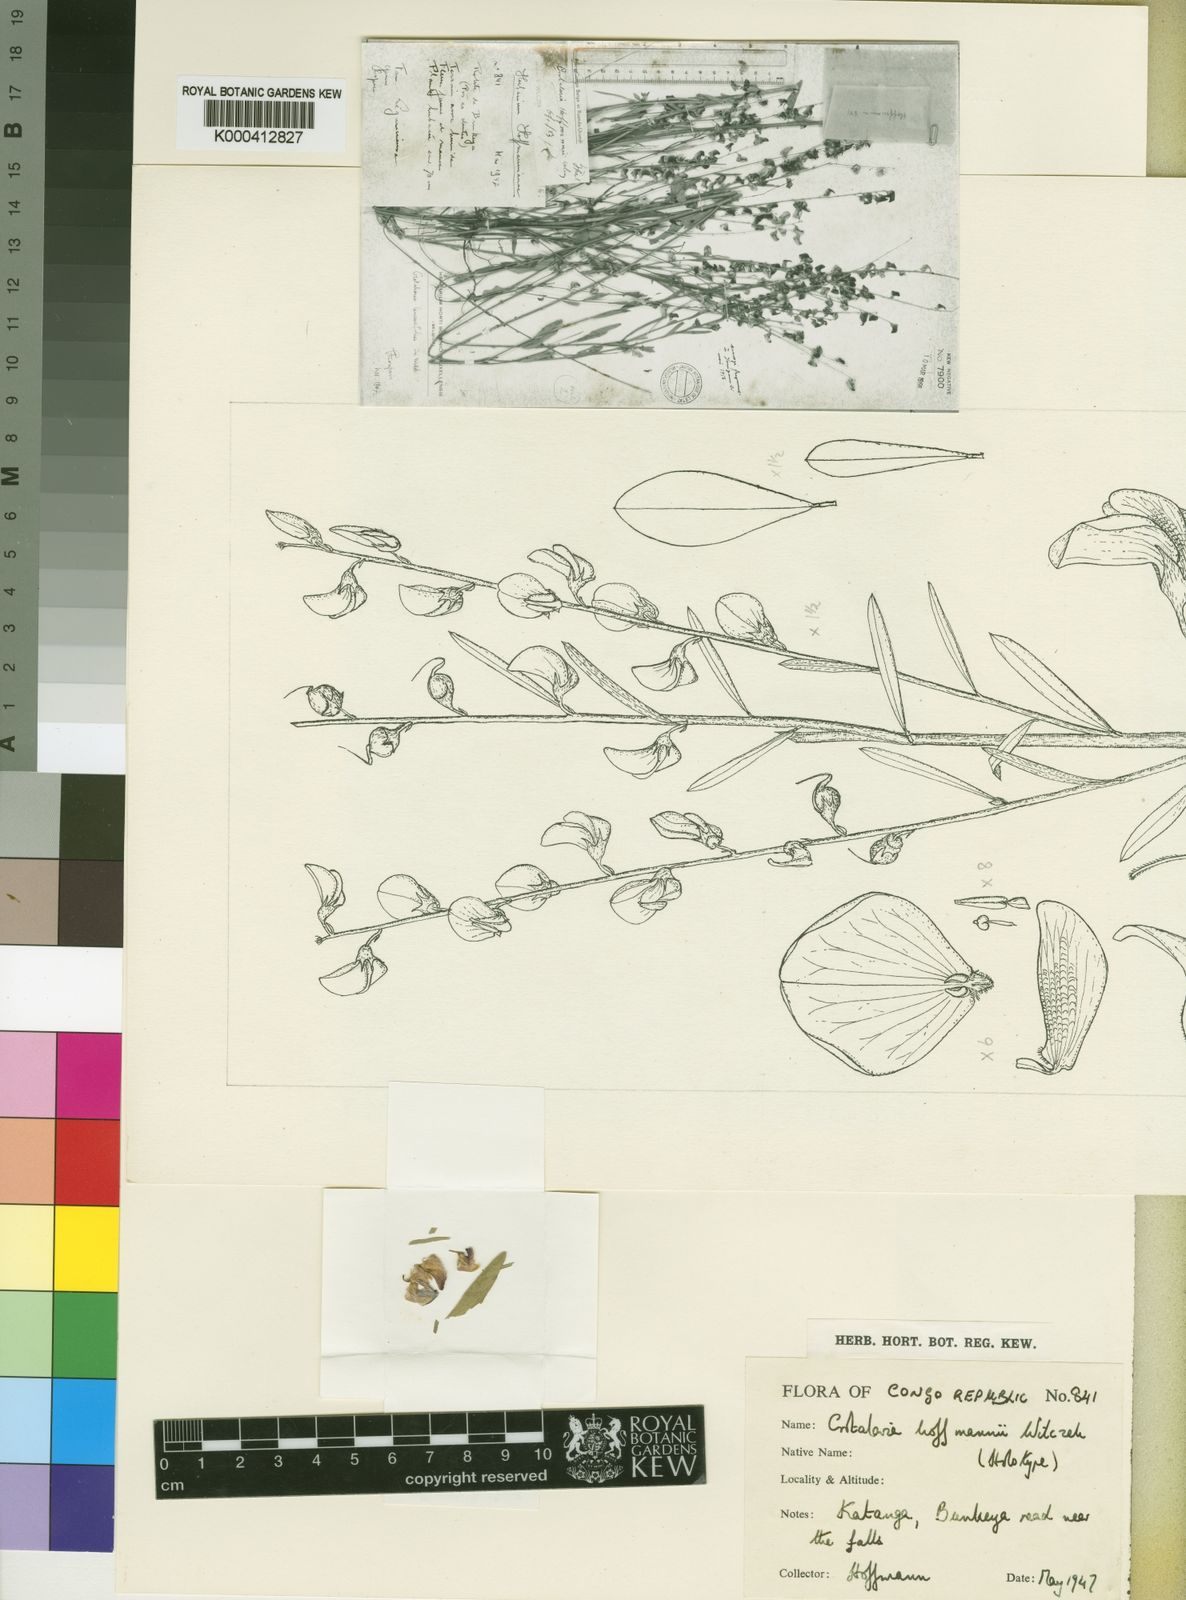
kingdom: Plantae
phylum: Tracheophyta
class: Magnoliopsida
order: Fabales
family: Fabaceae
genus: Crotalaria
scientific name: Crotalaria hoffmannii
